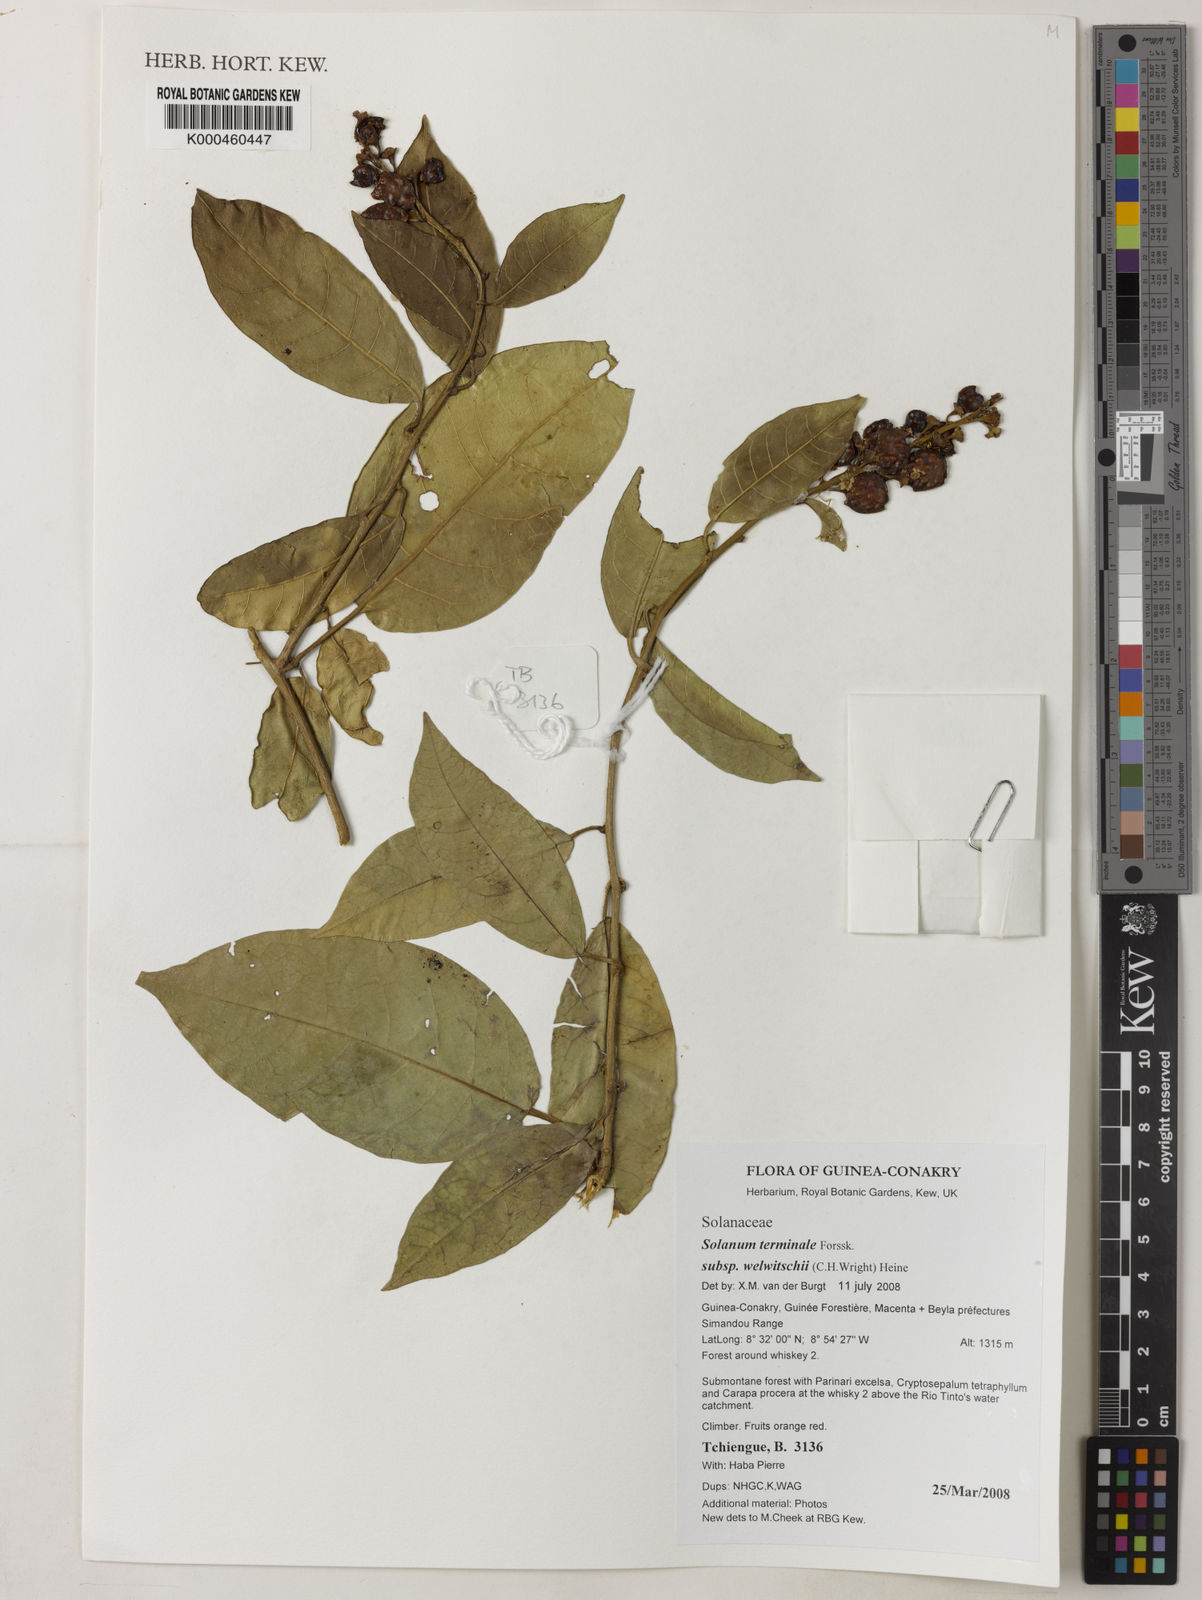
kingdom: Plantae
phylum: Tracheophyta
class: Magnoliopsida
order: Solanales
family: Solanaceae
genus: Solanum
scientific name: Solanum terminale
